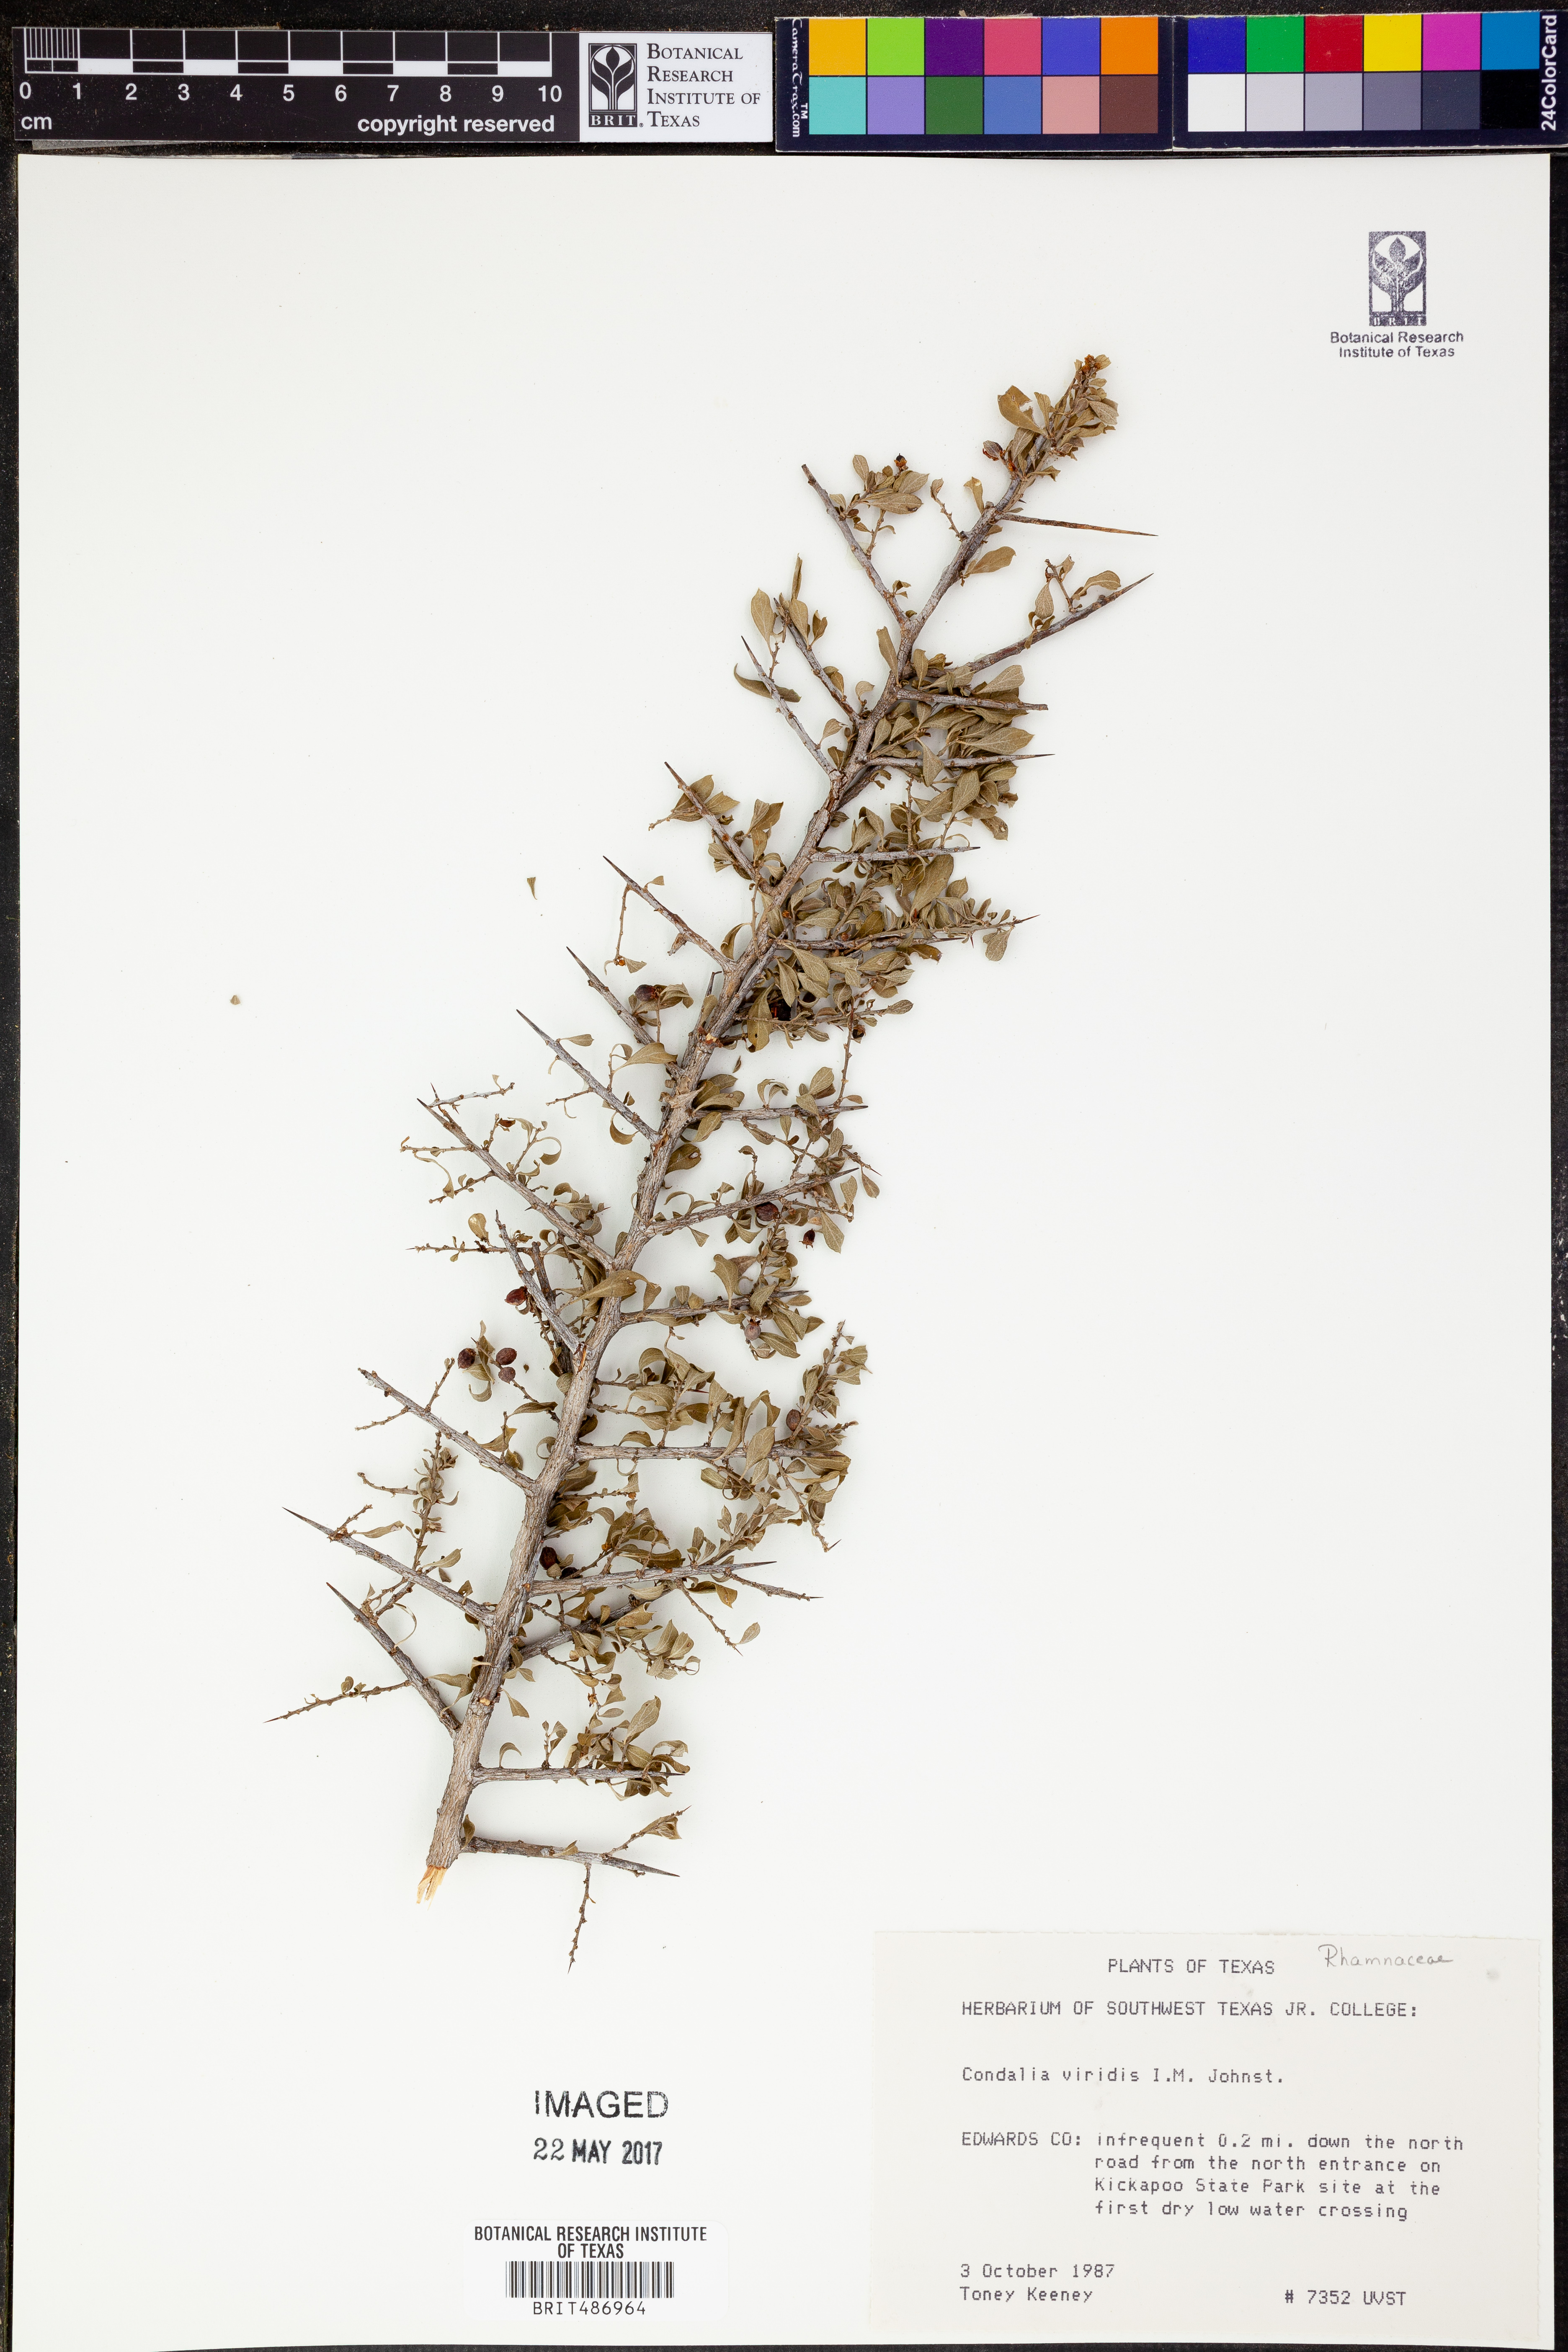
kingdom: Plantae
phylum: Tracheophyta
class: Magnoliopsida
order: Rosales
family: Rhamnaceae
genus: Condalia
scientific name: Condalia viridis
